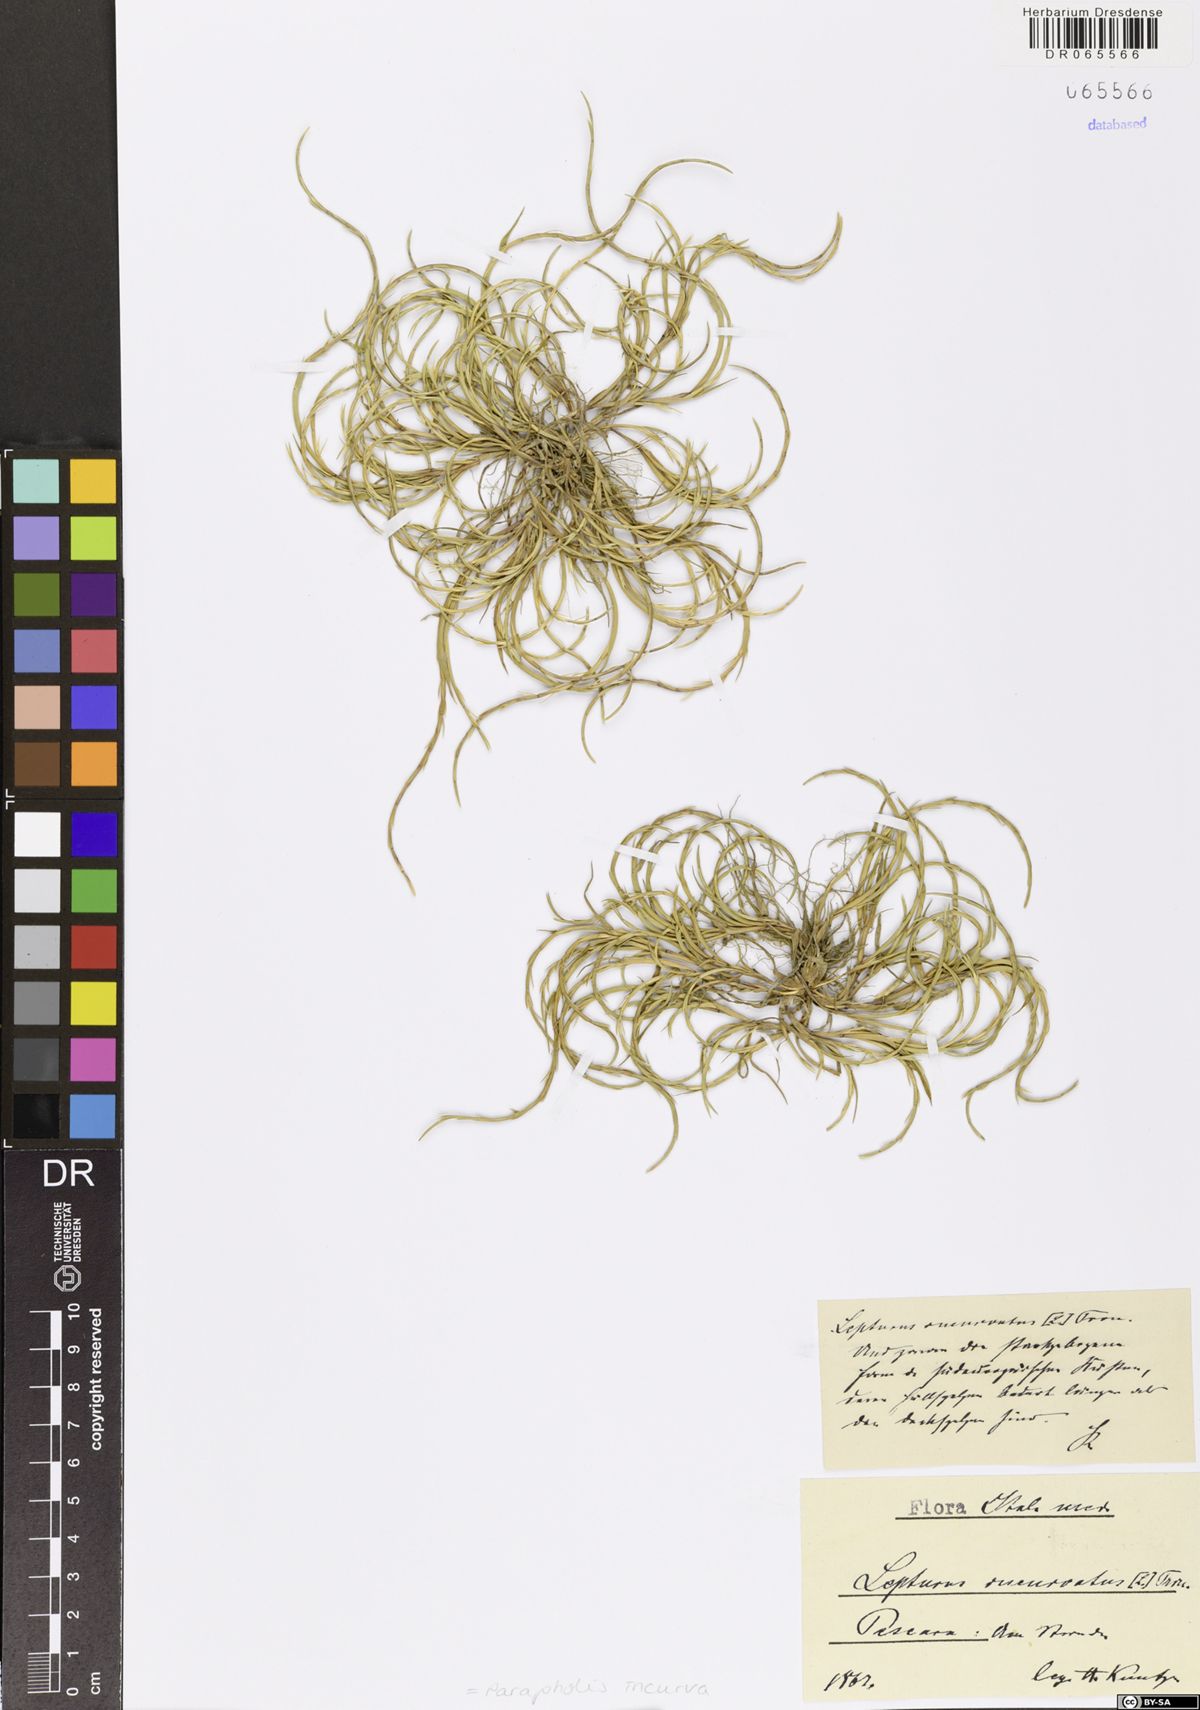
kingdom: Plantae
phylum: Tracheophyta
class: Liliopsida
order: Poales
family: Poaceae
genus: Parapholis
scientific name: Parapholis incurva
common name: Curved sicklegrass
